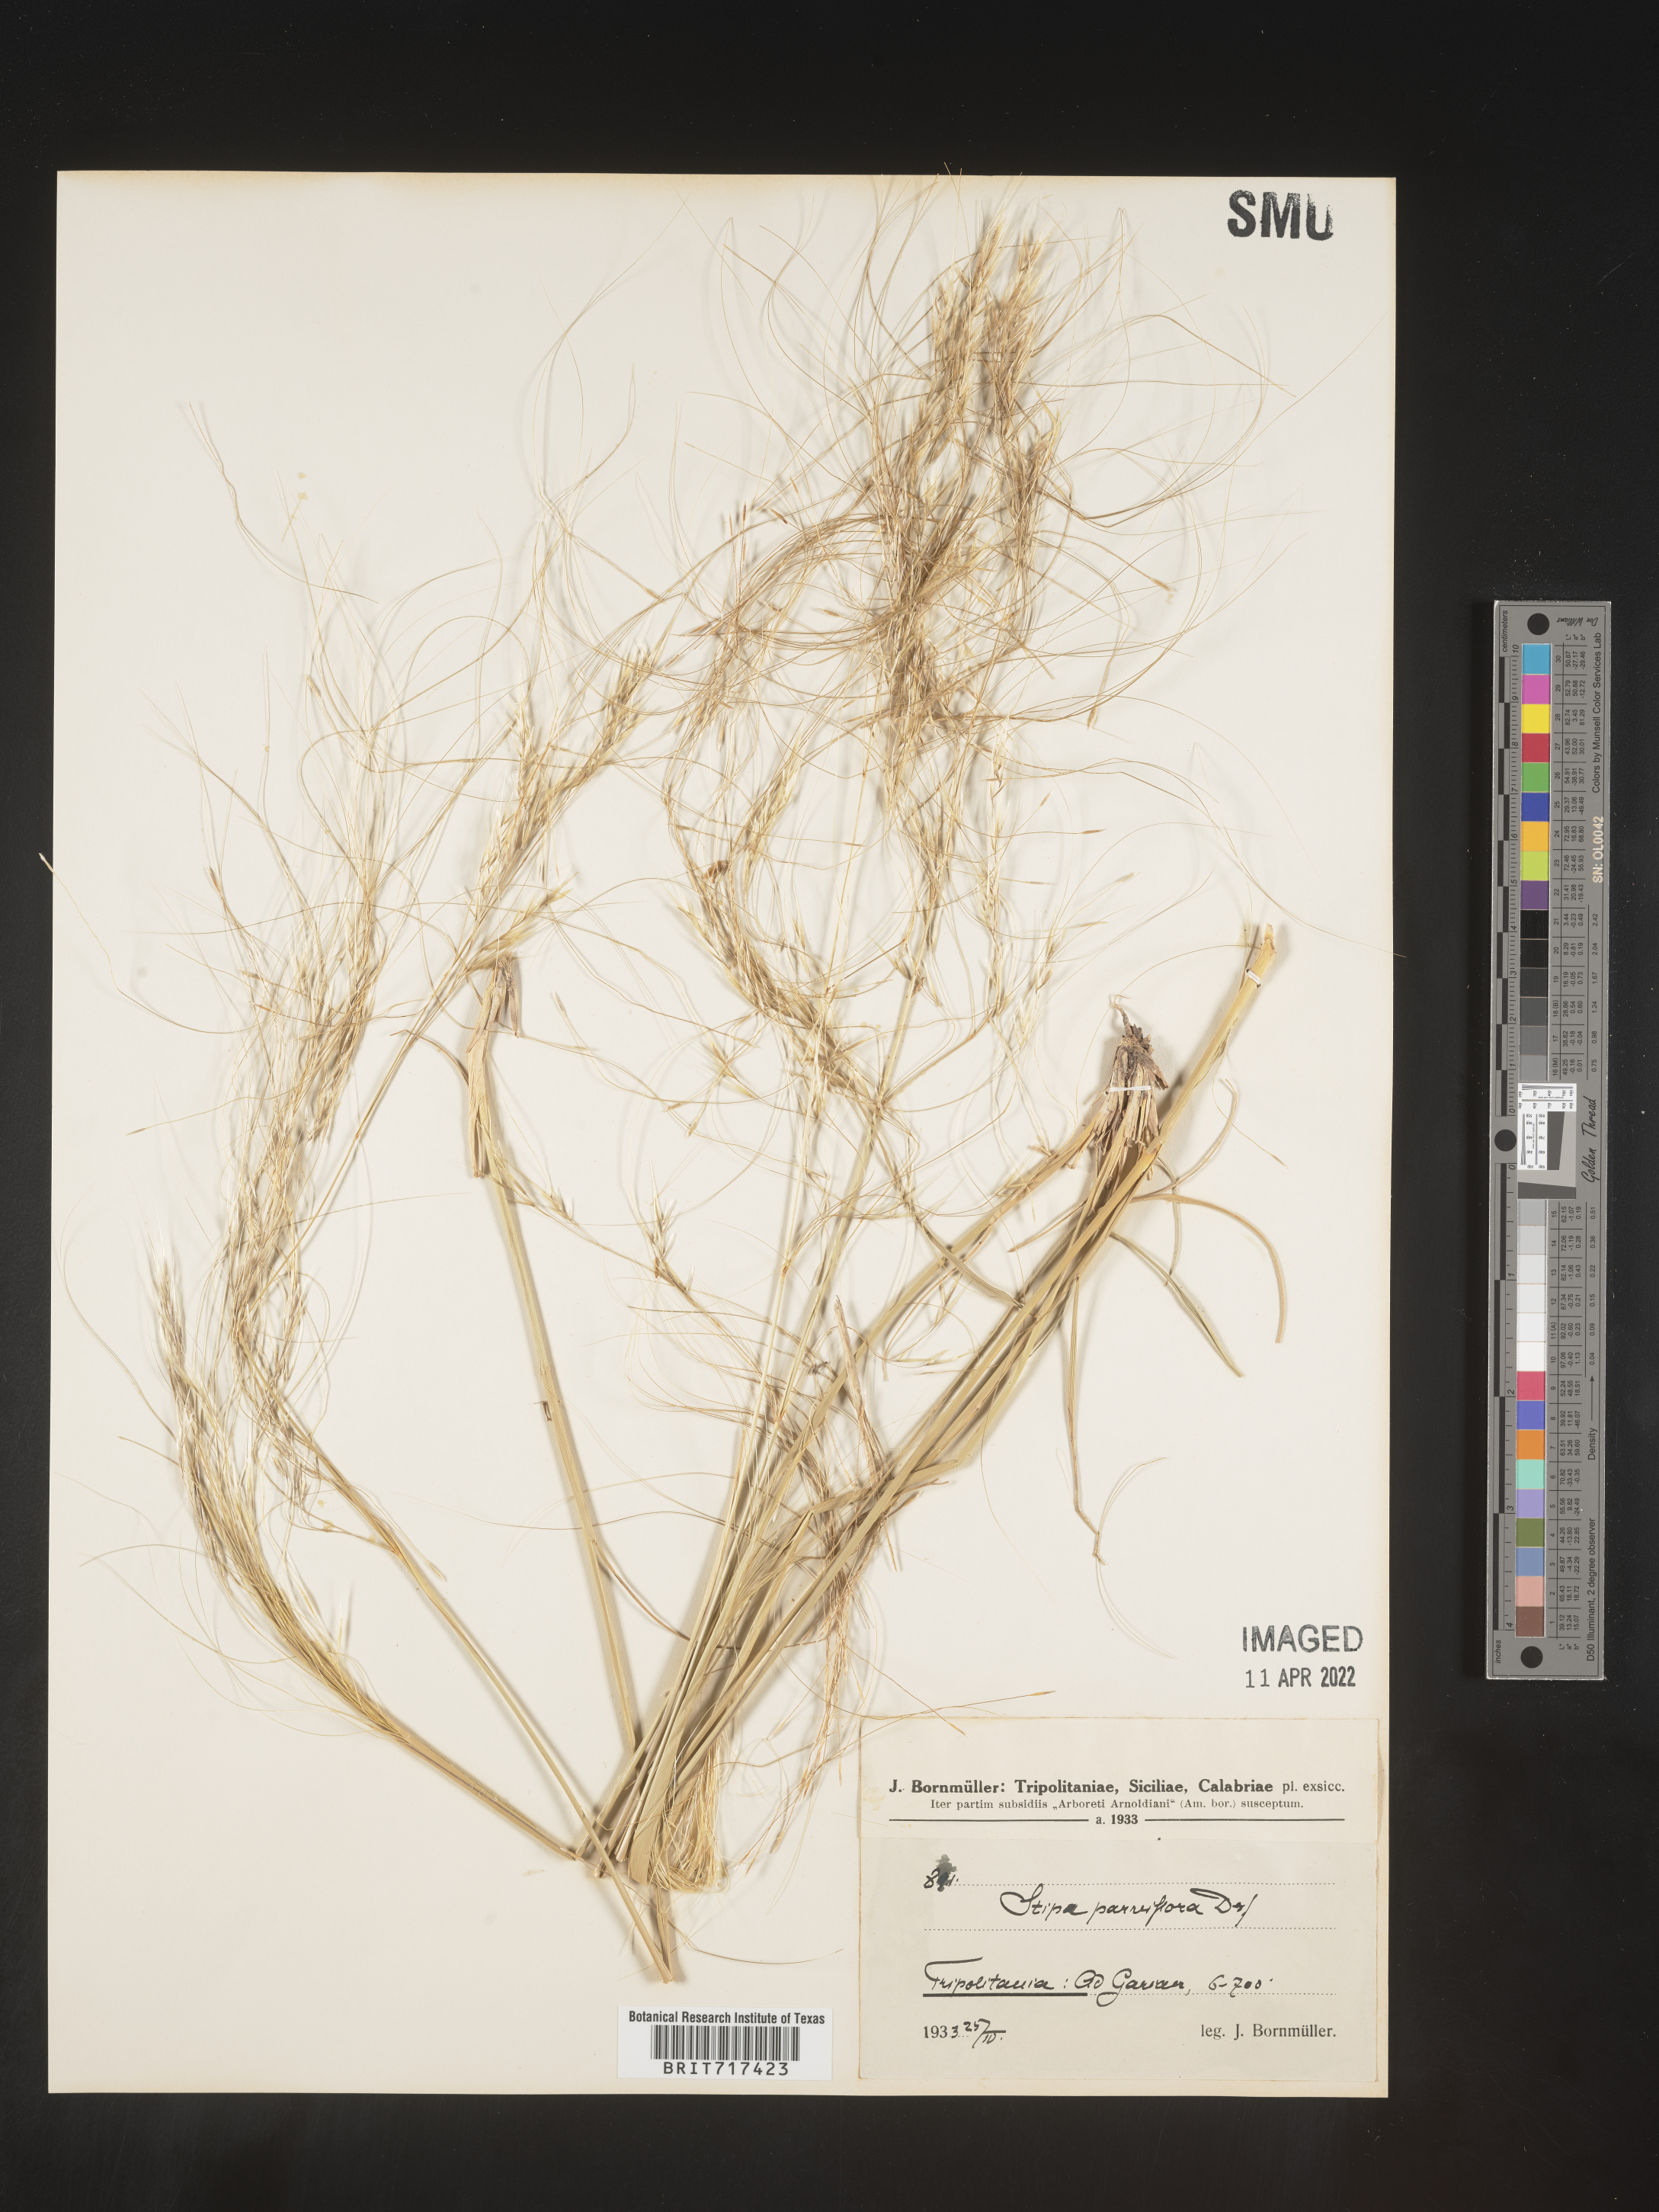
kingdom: Plantae
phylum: Tracheophyta
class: Liliopsida
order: Poales
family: Poaceae
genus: Stipa
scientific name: Stipa
